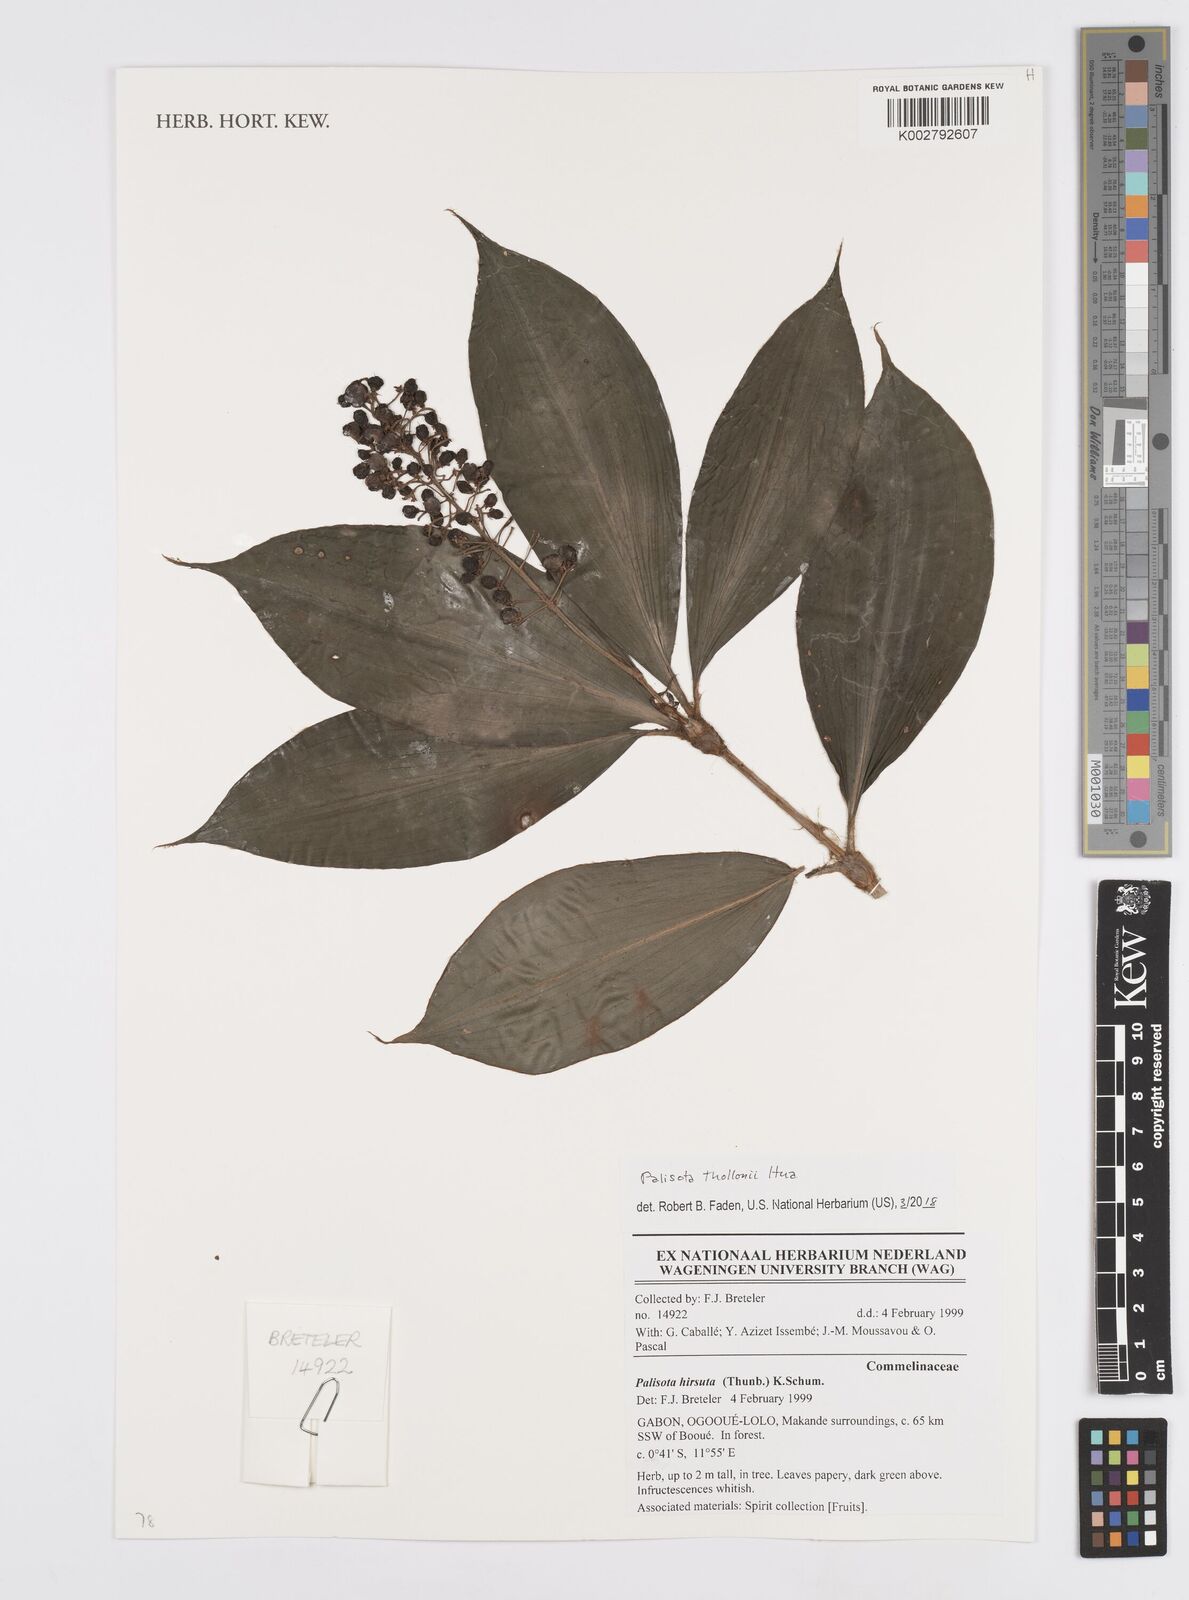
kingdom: Plantae
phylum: Tracheophyta
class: Liliopsida
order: Commelinales
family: Commelinaceae
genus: Palisota
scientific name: Palisota thollonii
